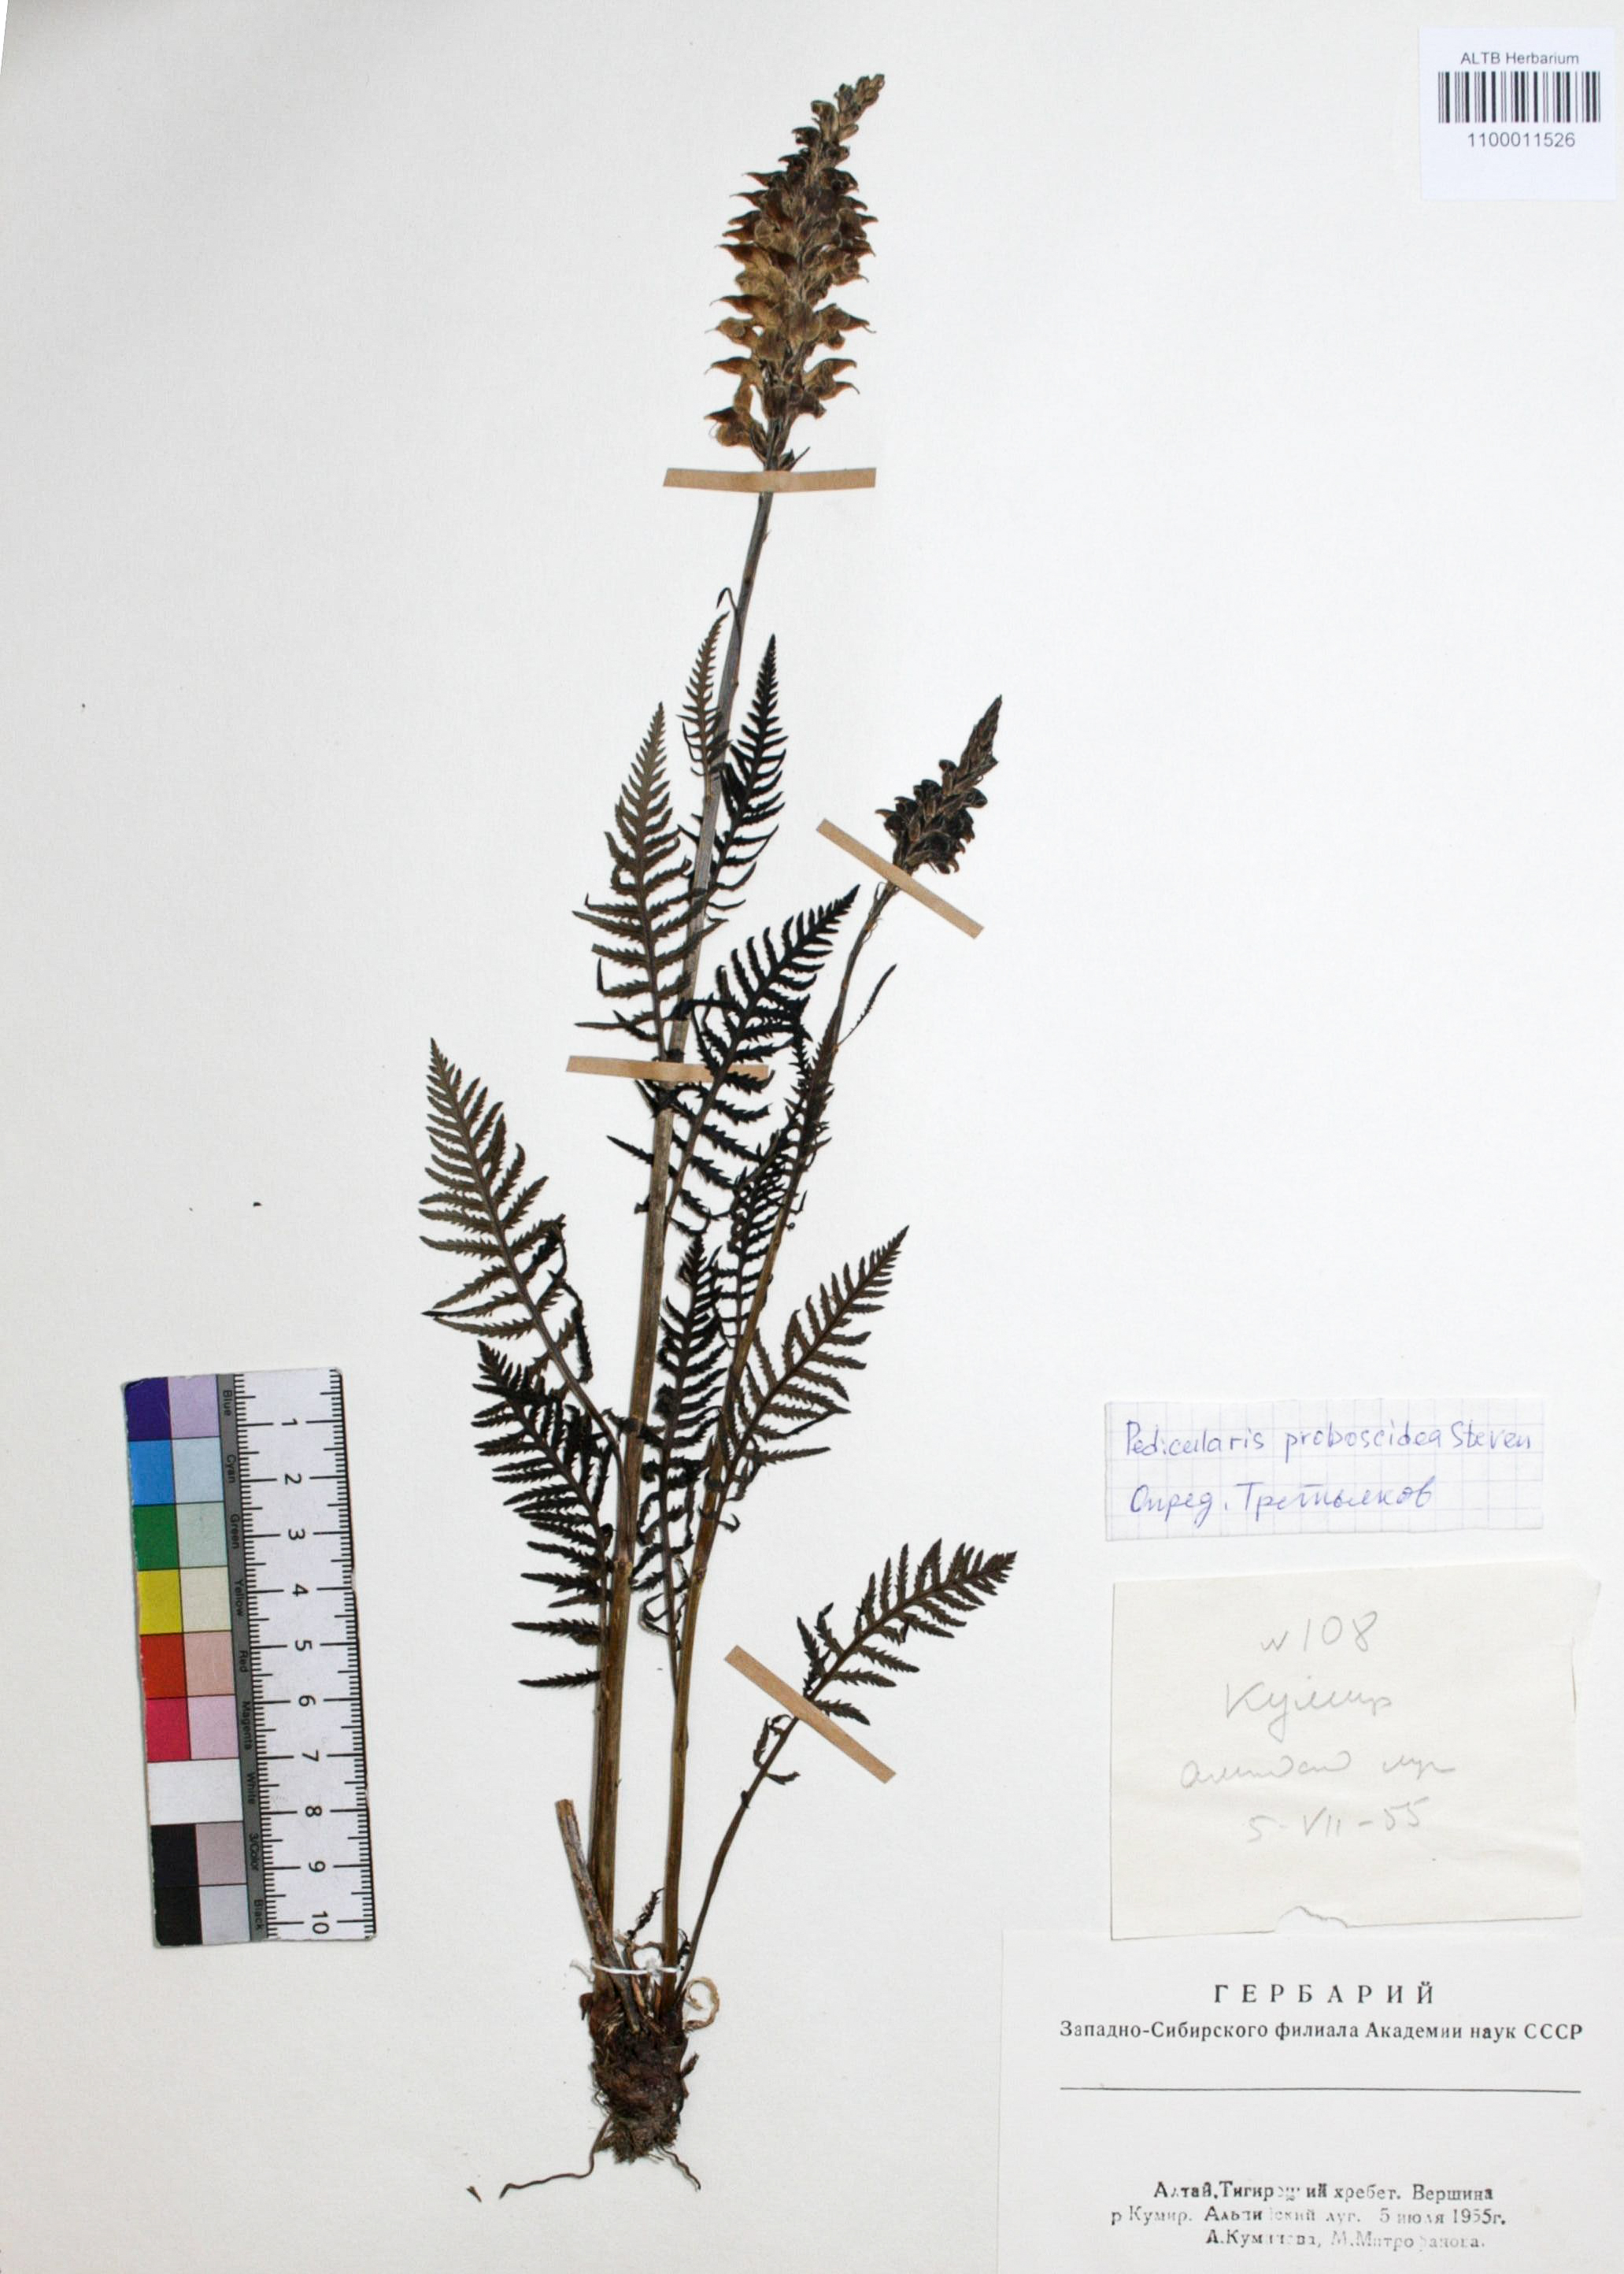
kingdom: Plantae
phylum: Tracheophyta
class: Magnoliopsida
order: Lamiales
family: Orobanchaceae
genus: Pedicularis
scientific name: Pedicularis proboscidea
